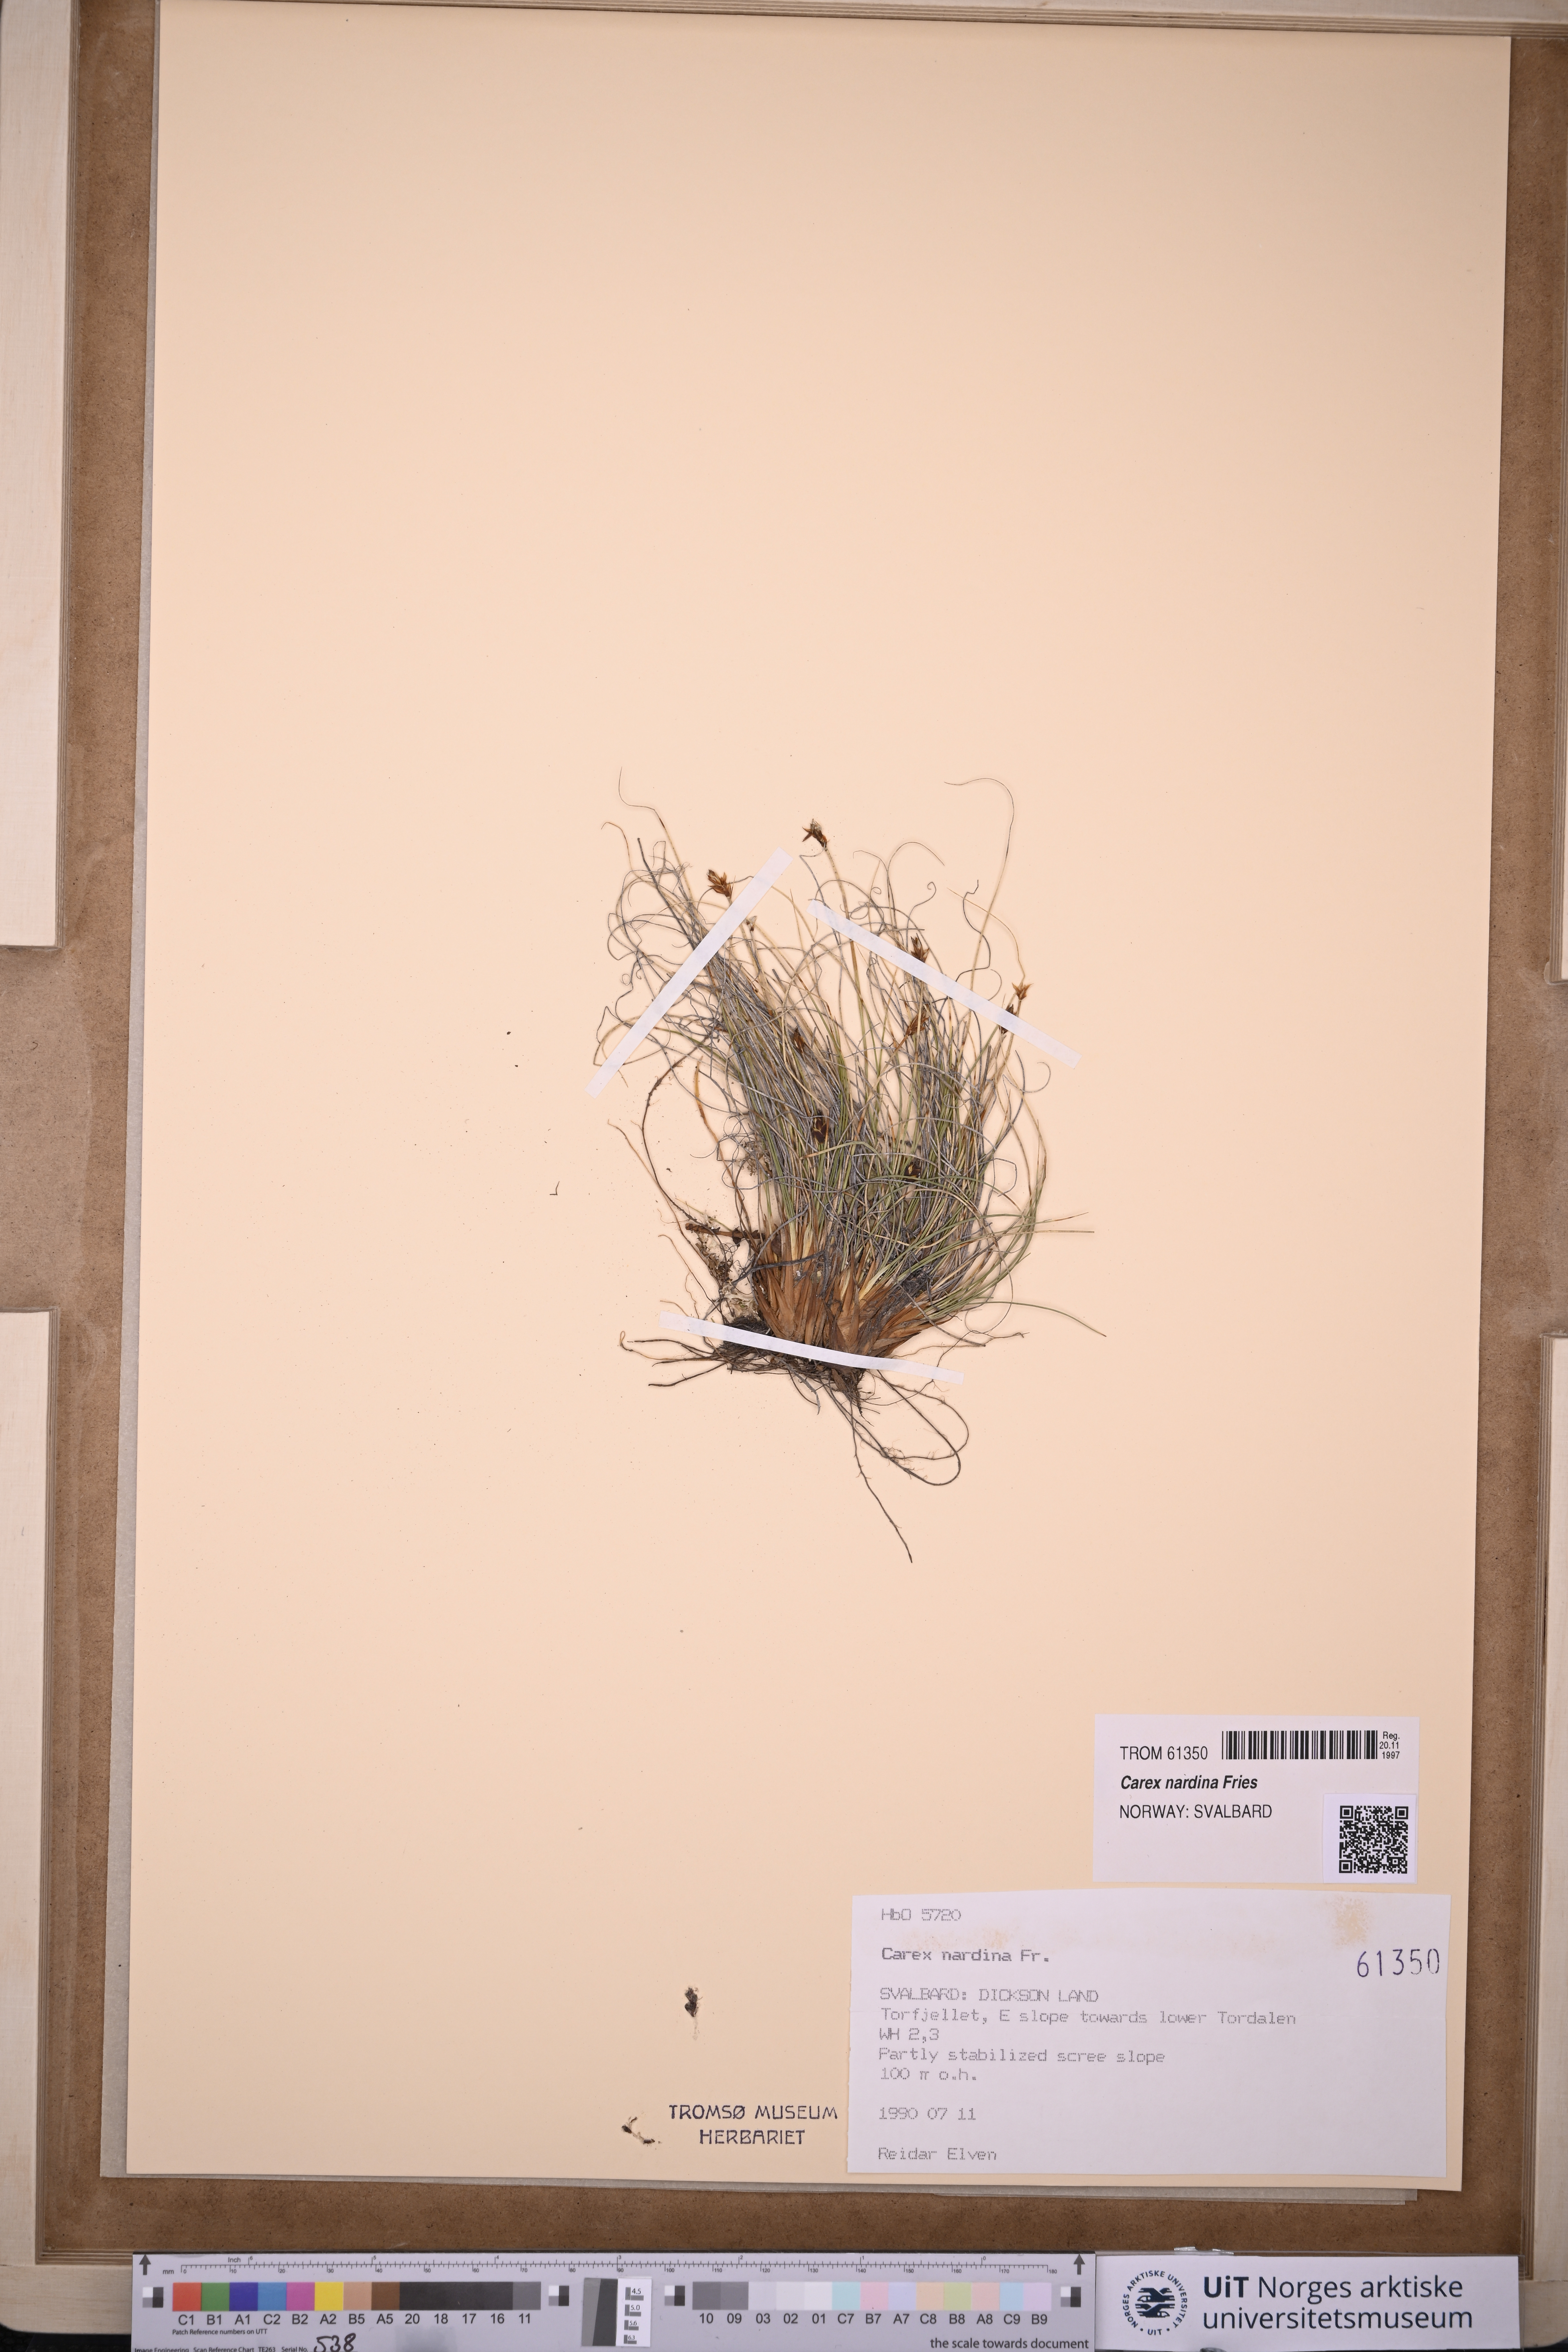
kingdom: Plantae
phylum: Tracheophyta
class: Liliopsida
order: Poales
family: Cyperaceae
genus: Carex
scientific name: Carex nardina
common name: Nard sedge
